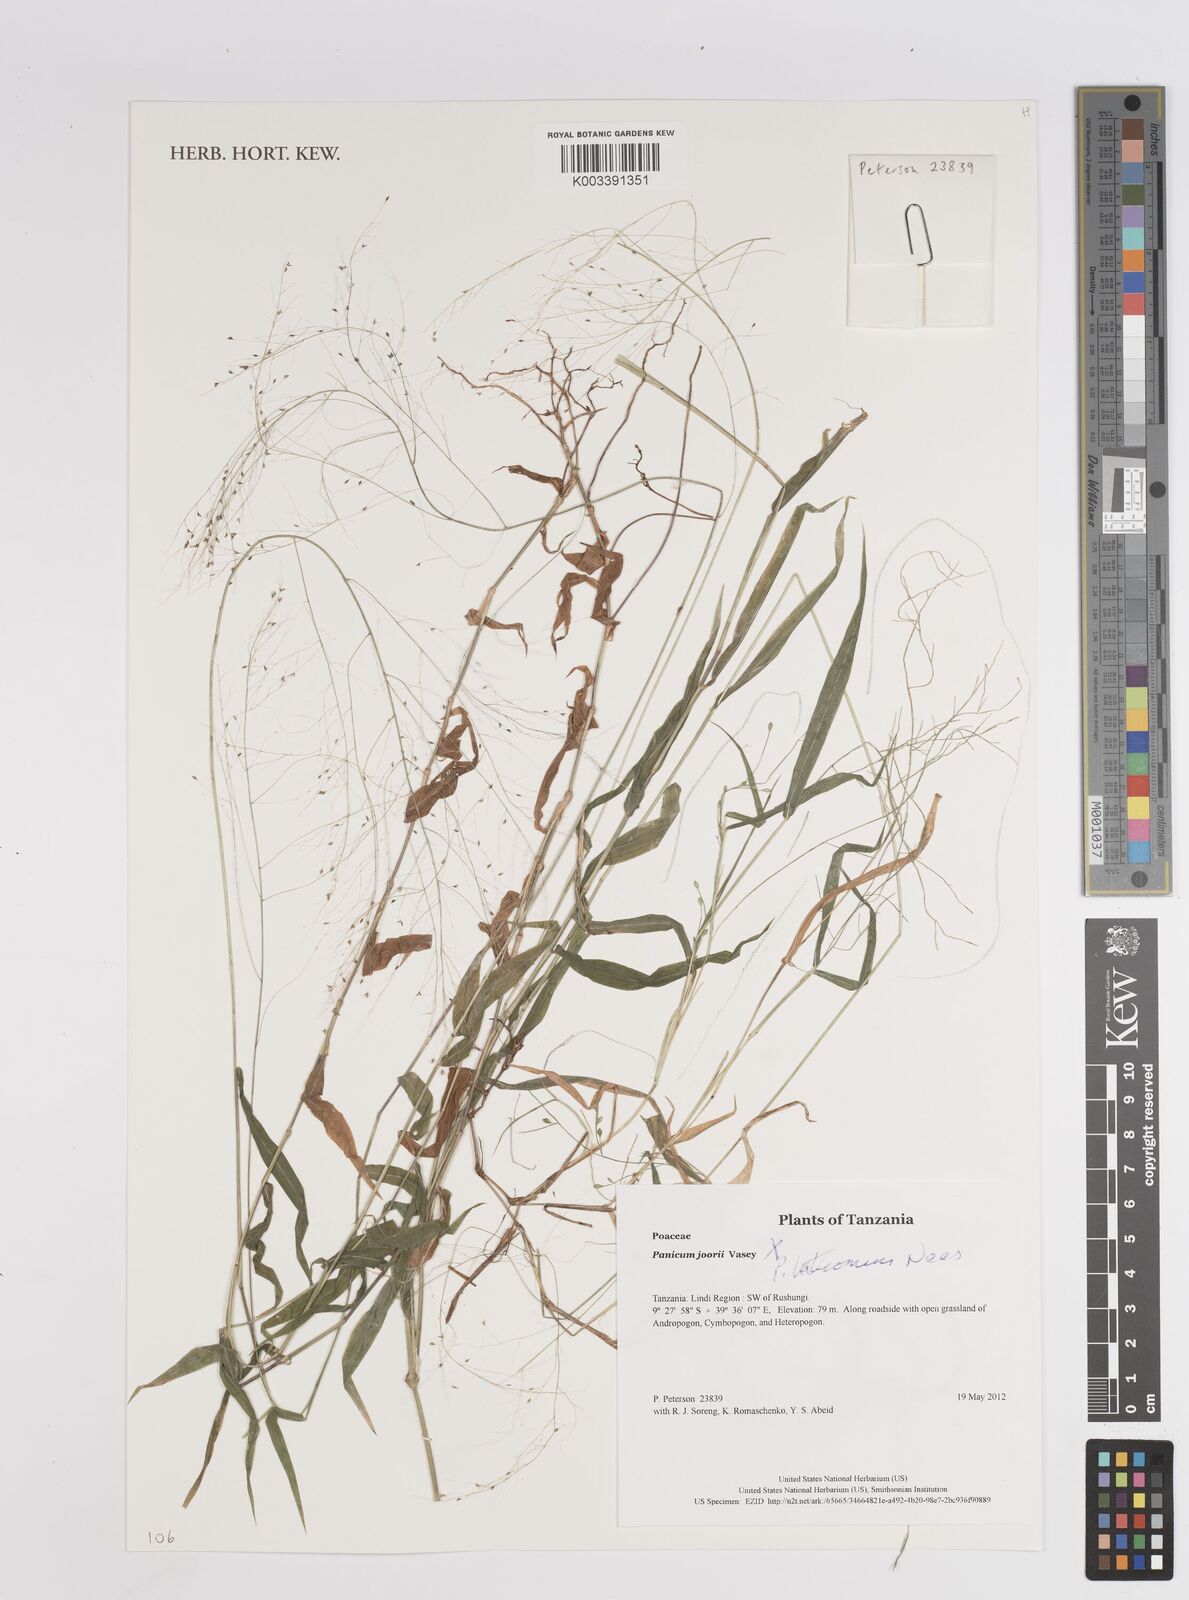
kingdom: Plantae
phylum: Tracheophyta
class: Liliopsida
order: Poales
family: Poaceae
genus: Panicum
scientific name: Panicum laticomum
